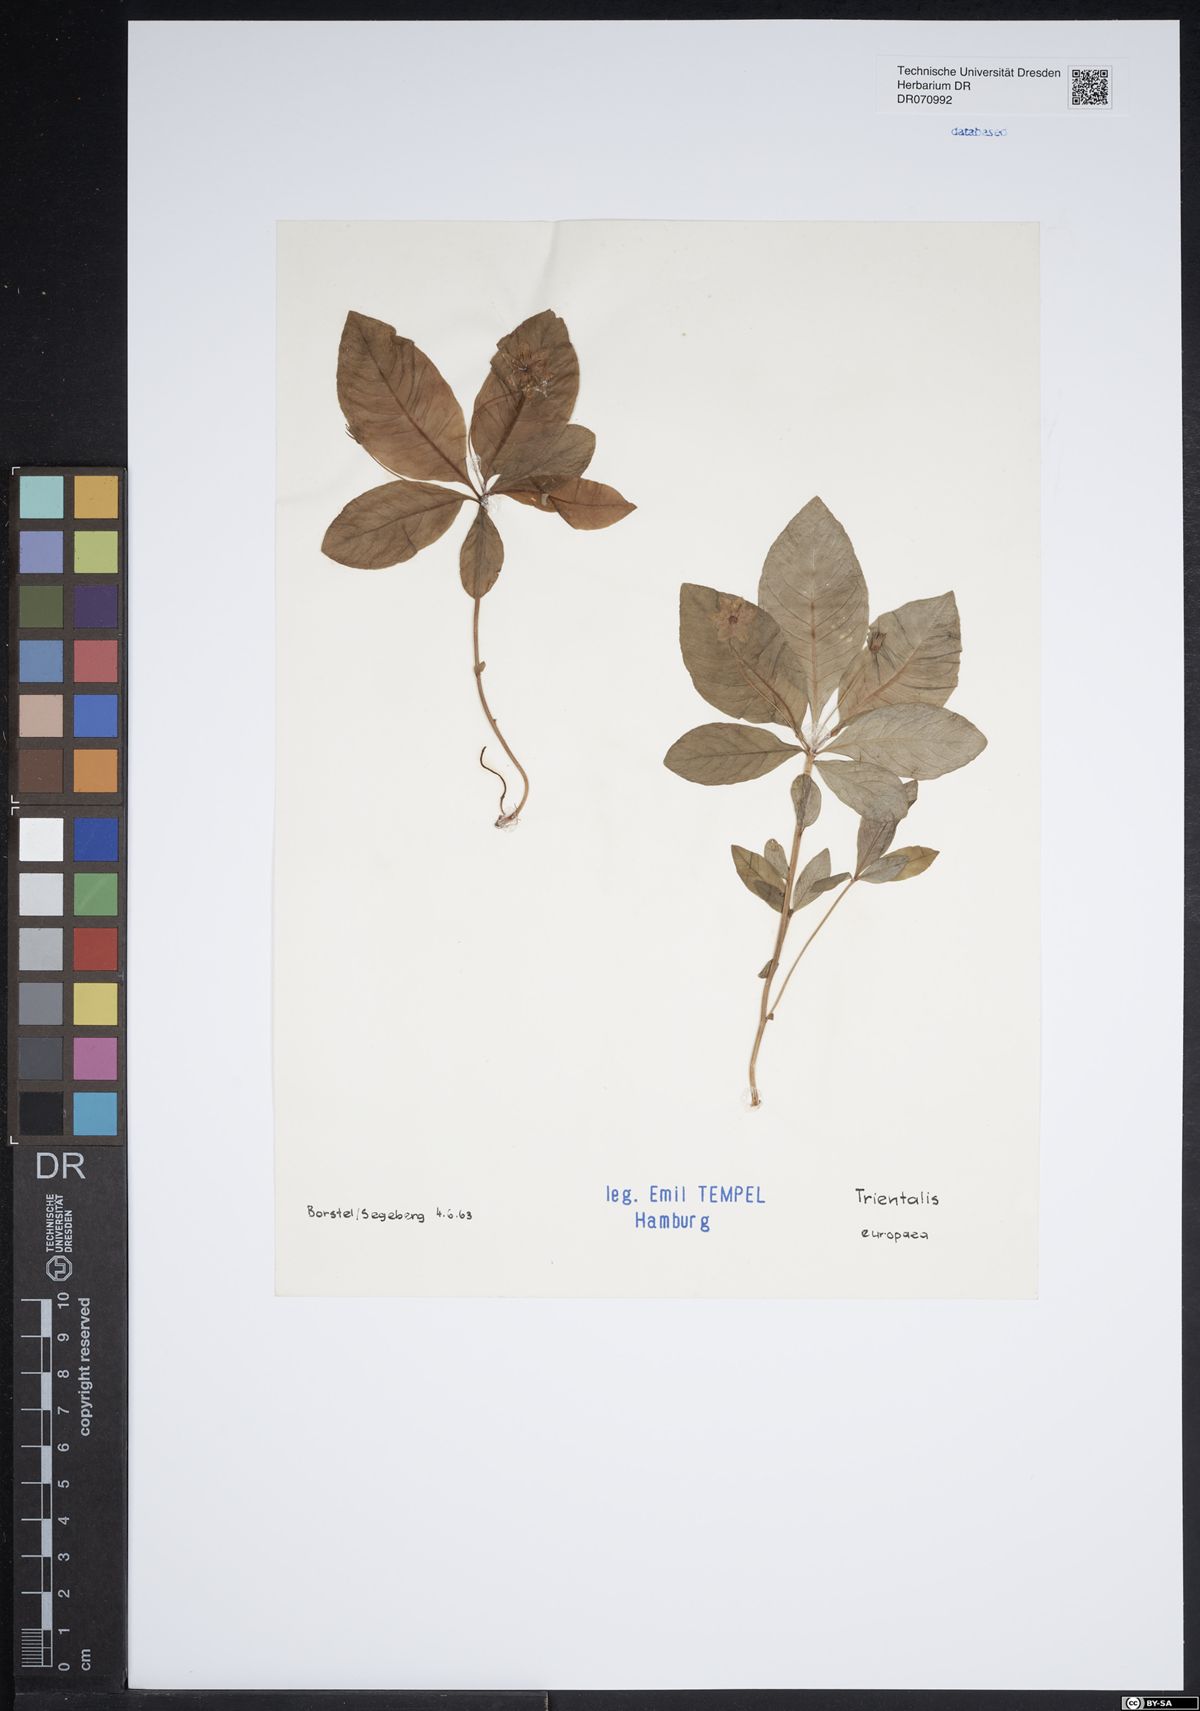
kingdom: Plantae
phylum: Tracheophyta
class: Magnoliopsida
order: Ericales
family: Primulaceae
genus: Lysimachia
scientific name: Lysimachia europaea
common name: Arctic starflower
